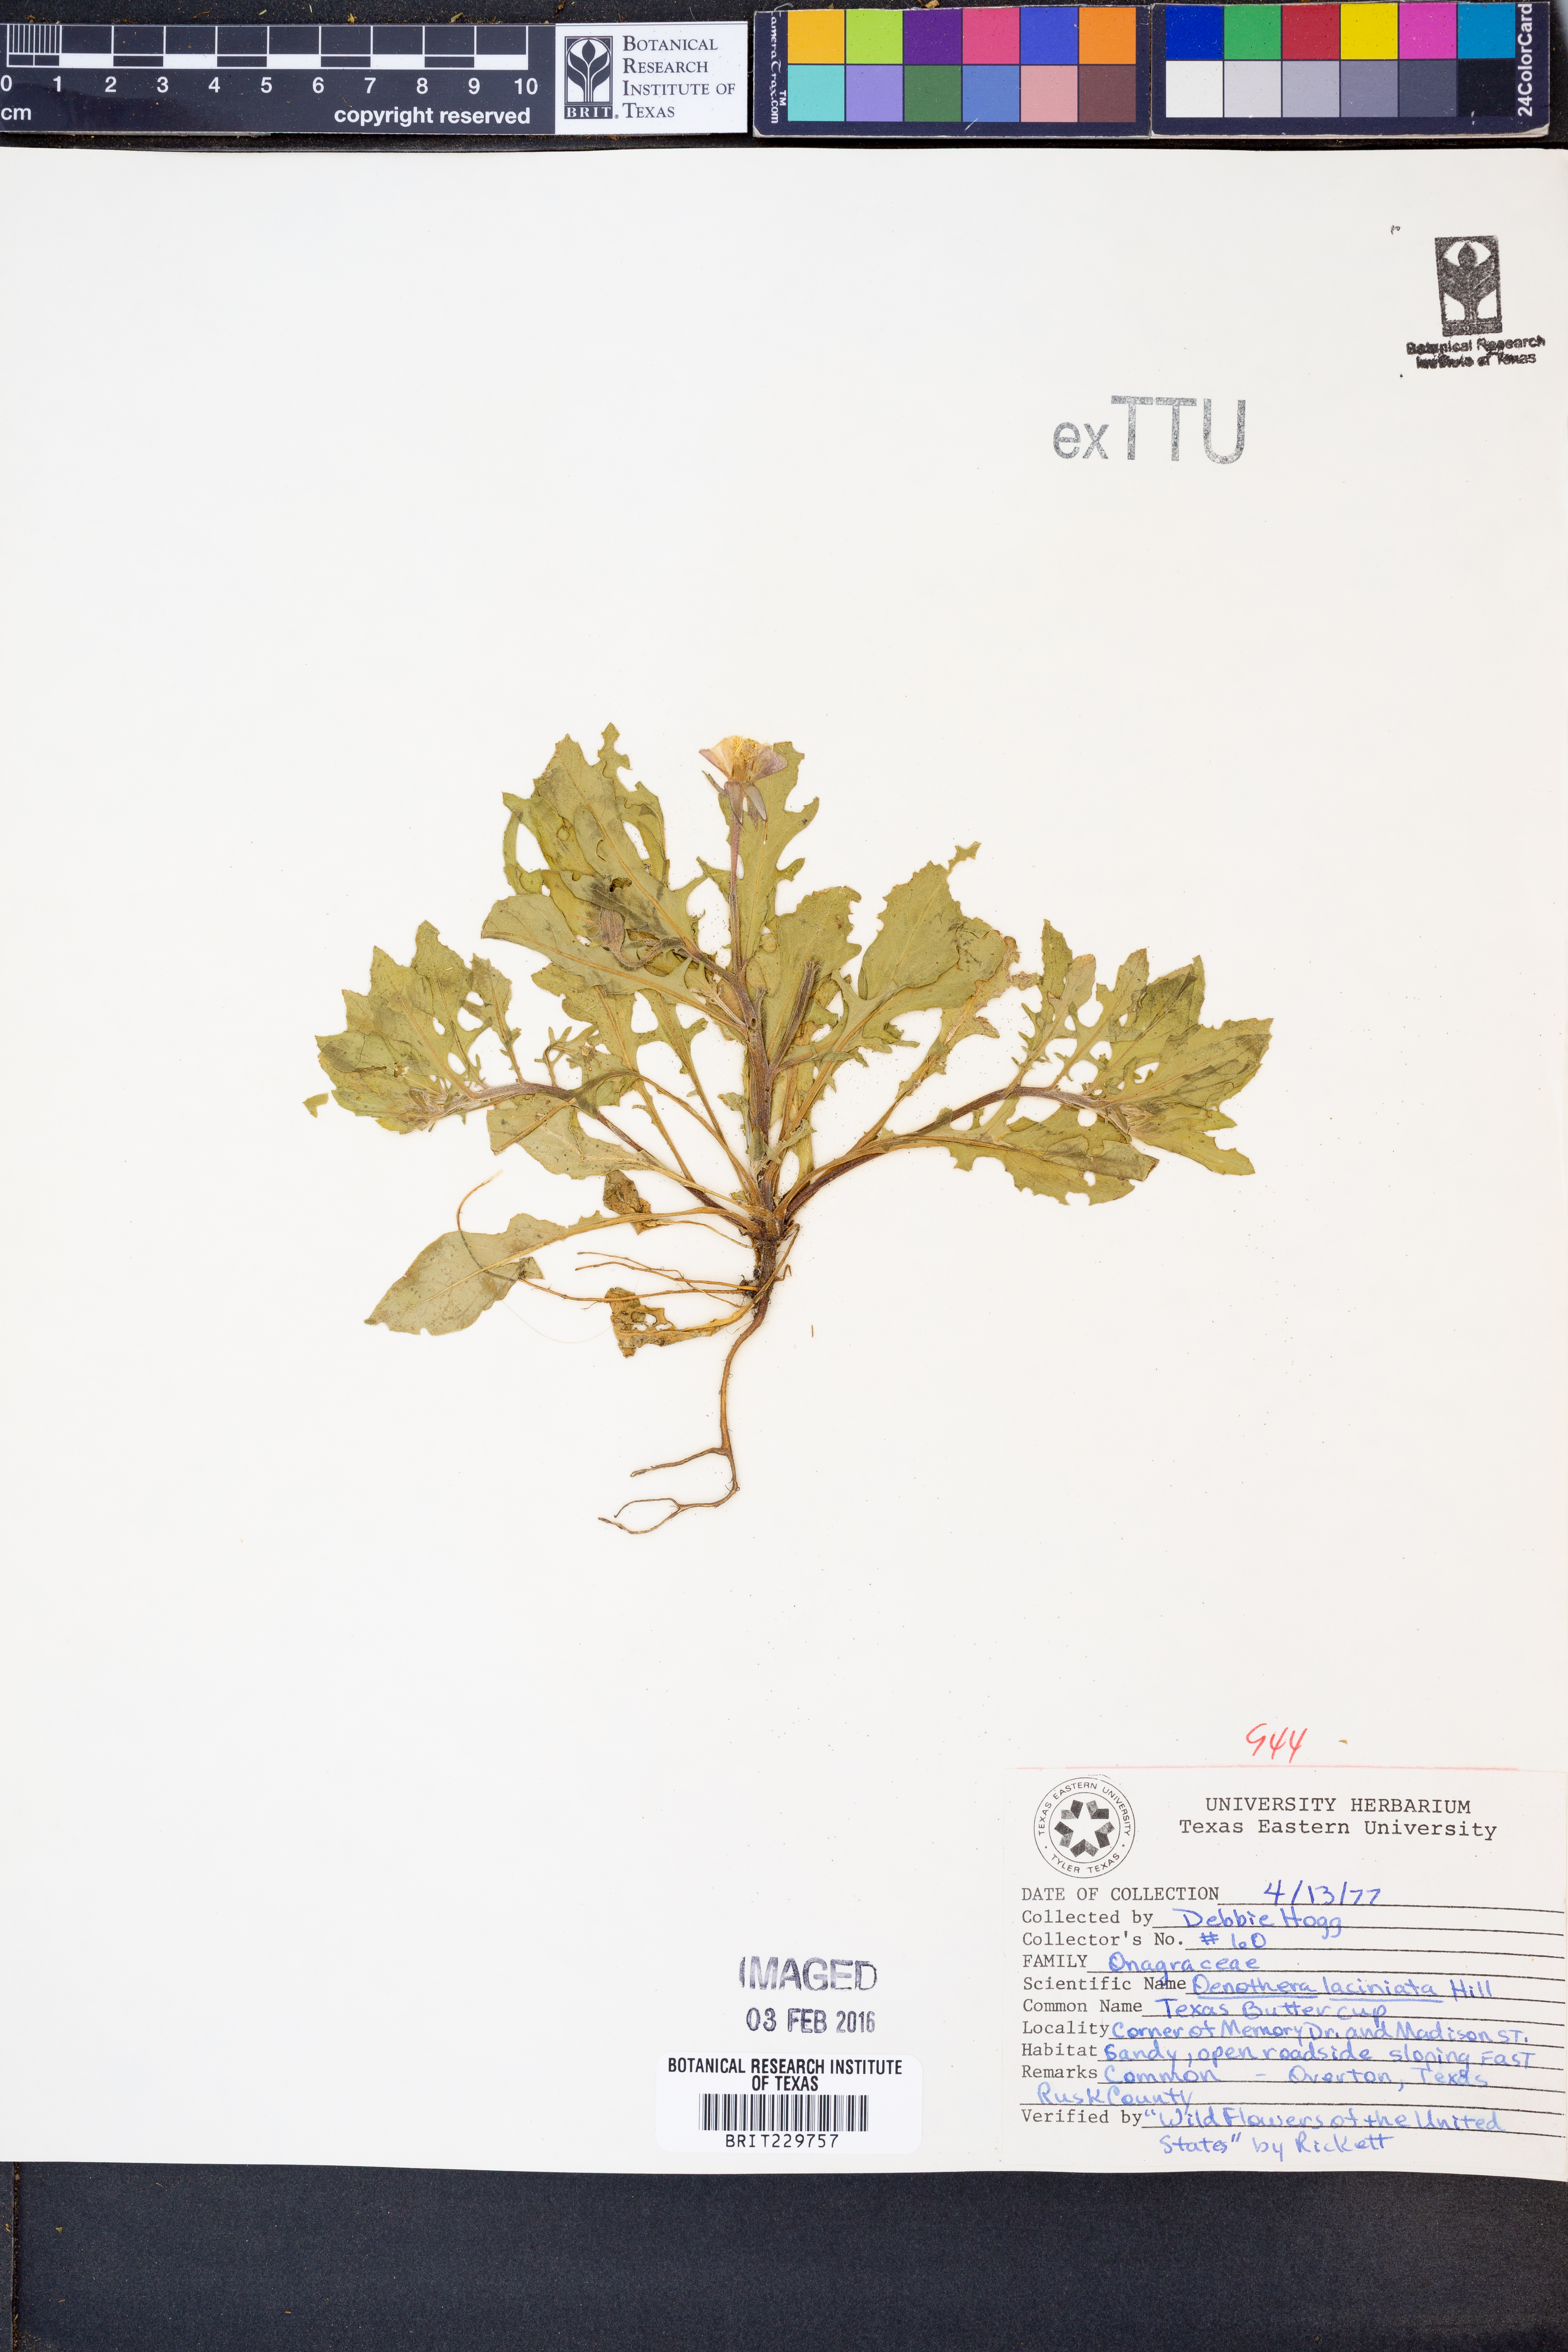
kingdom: Plantae
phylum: Tracheophyta
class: Magnoliopsida
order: Myrtales
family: Onagraceae
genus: Oenothera
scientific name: Oenothera laciniata
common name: Cut-leaved evening-primrose
